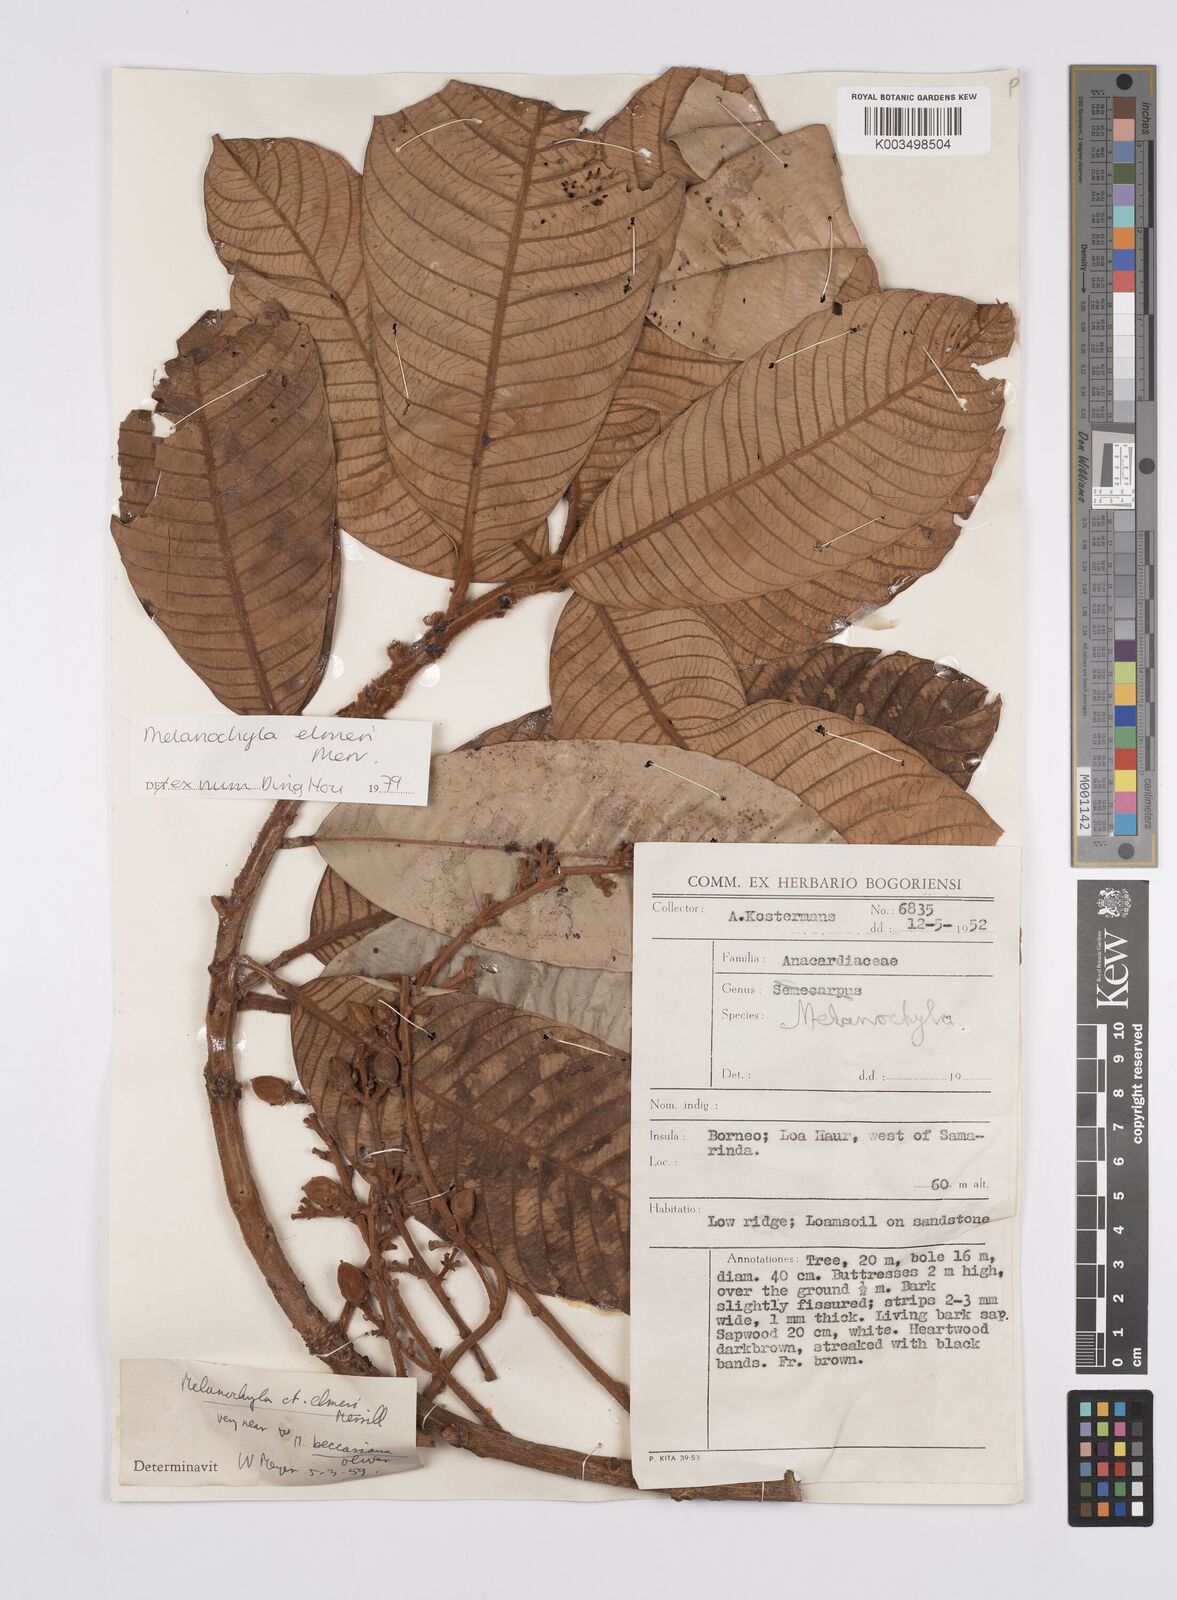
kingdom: Plantae
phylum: Tracheophyta
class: Magnoliopsida
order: Sapindales
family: Anacardiaceae
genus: Melanochyla
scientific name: Melanochyla elmeri
